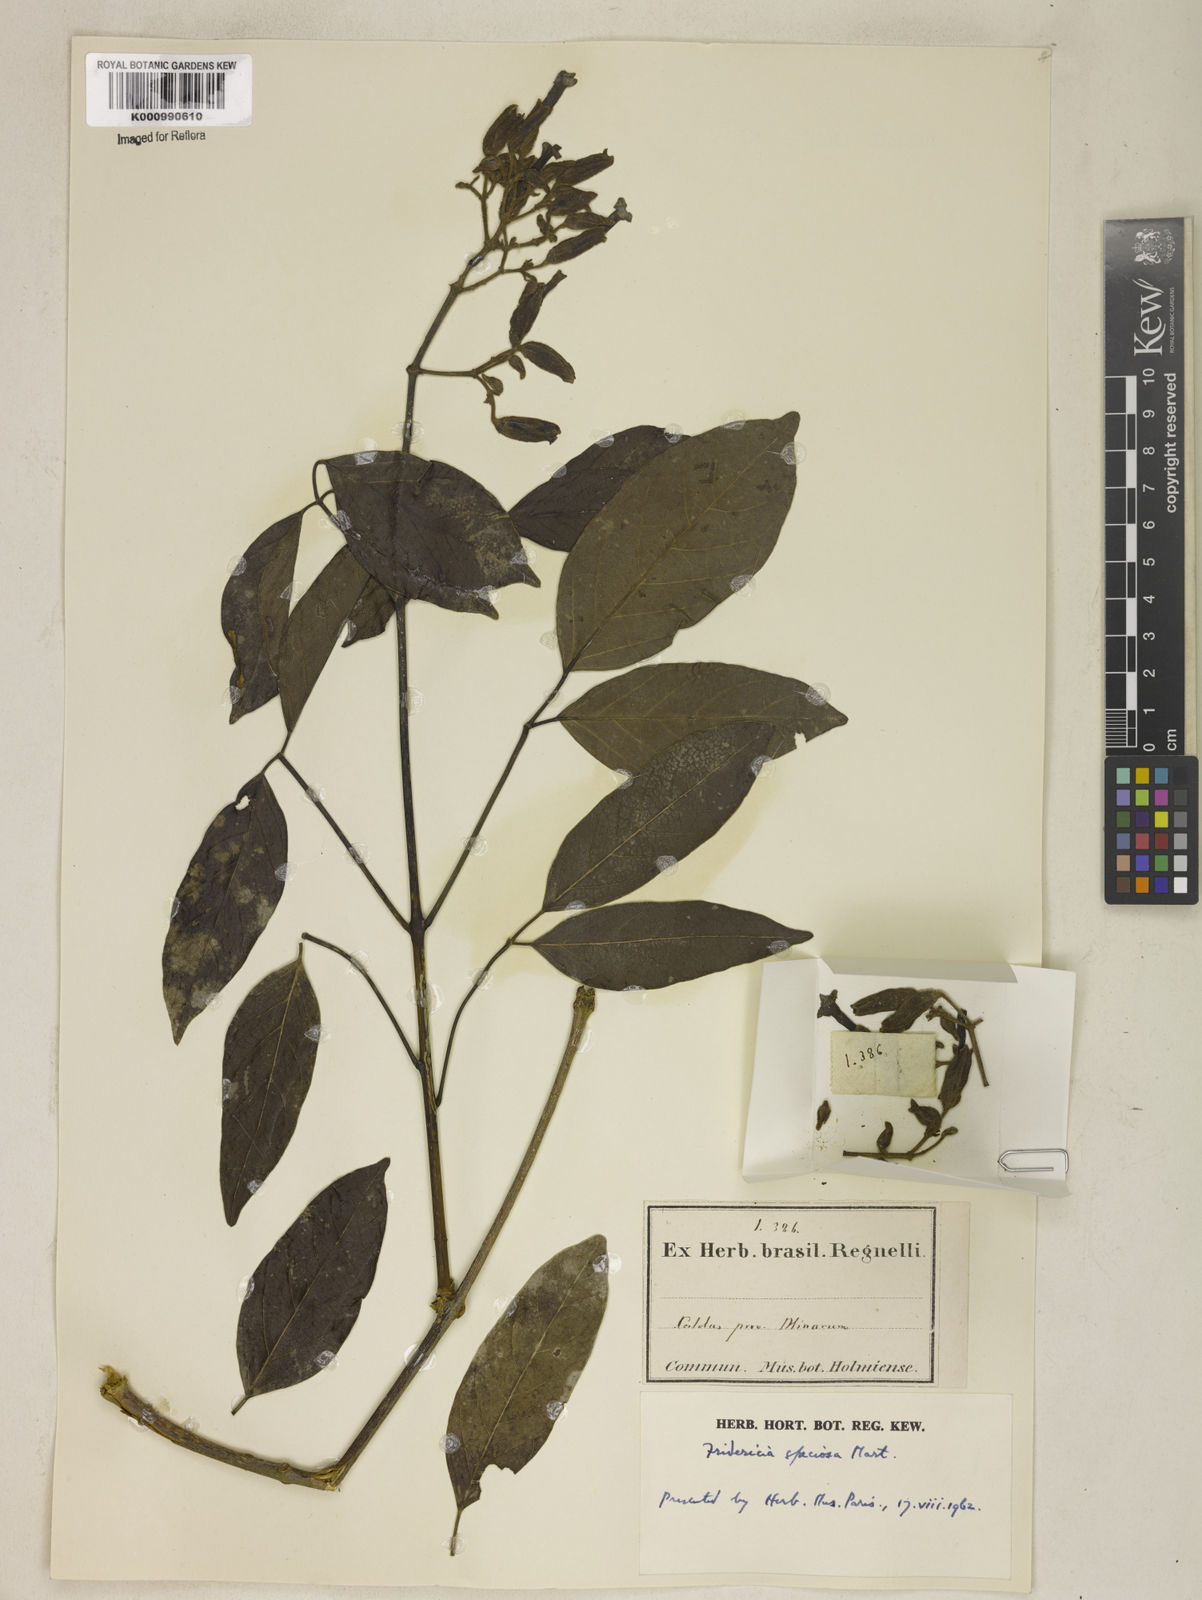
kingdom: Plantae
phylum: Tracheophyta
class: Magnoliopsida
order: Lamiales
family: Bignoniaceae
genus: Fridericia
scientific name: Fridericia speciosa
